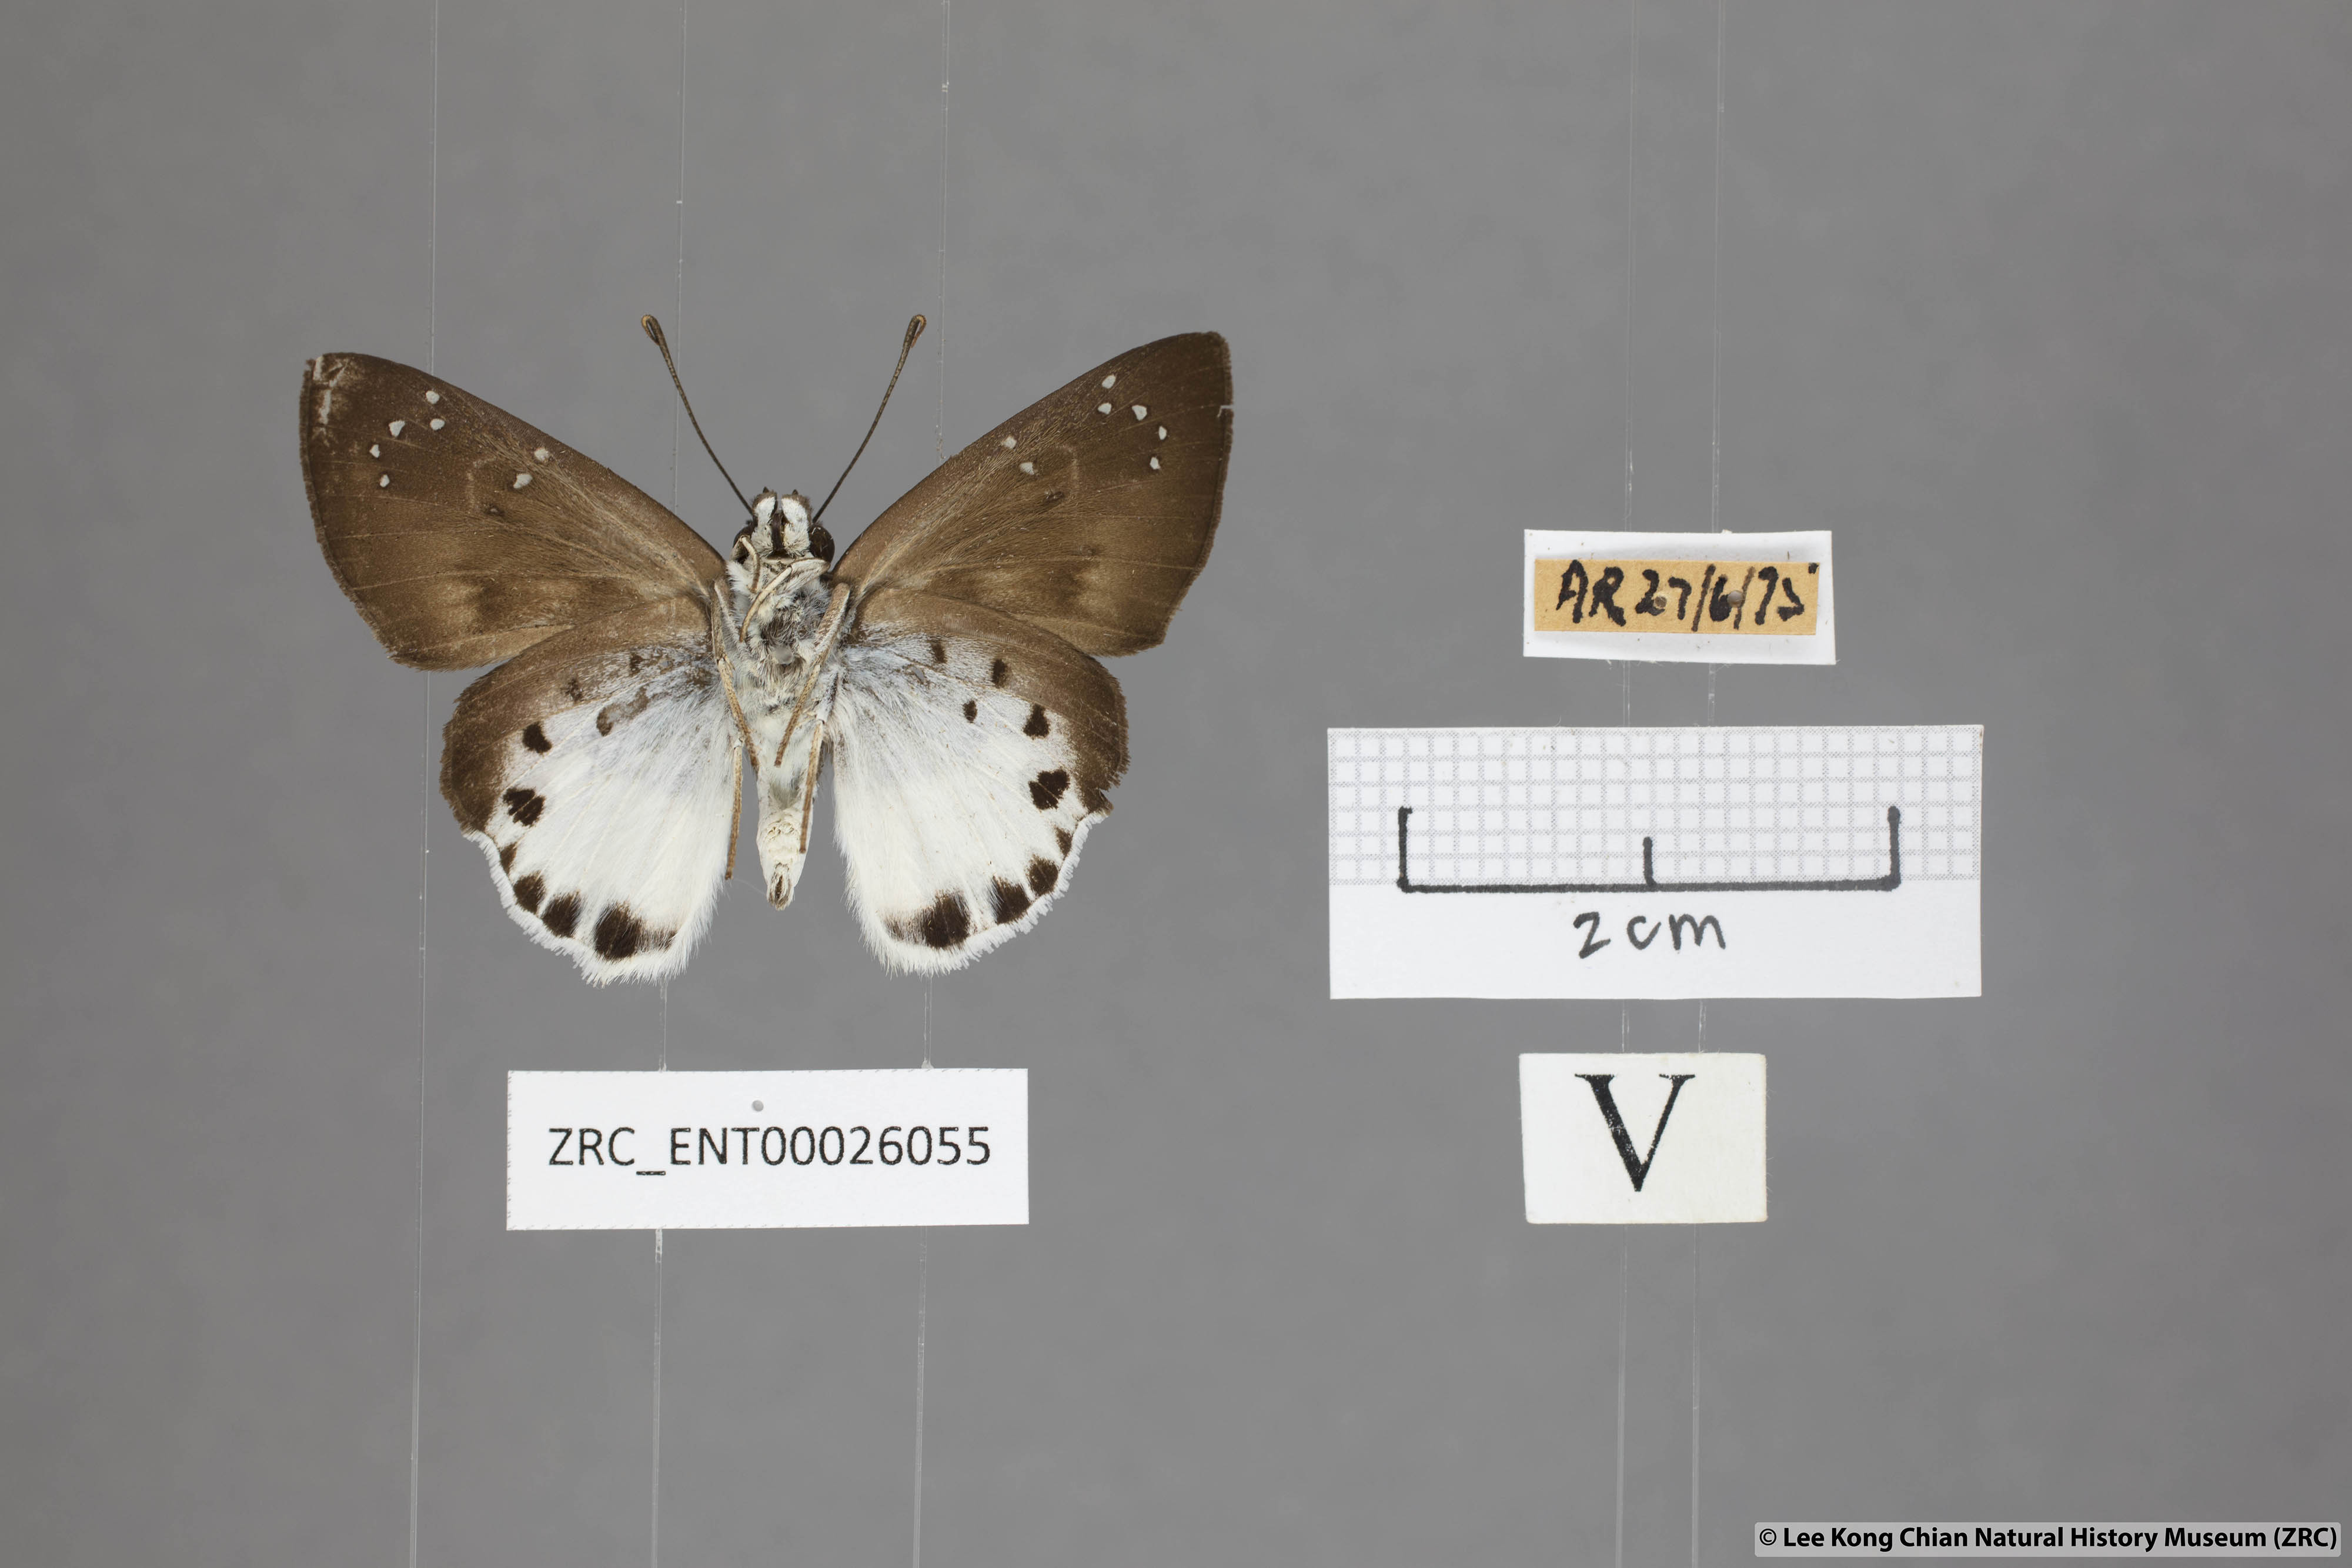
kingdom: Animalia
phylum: Arthropoda
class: Insecta
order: Lepidoptera
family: Hesperiidae
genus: Tagiades
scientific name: Tagiades litigiosa
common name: Water snow flat
